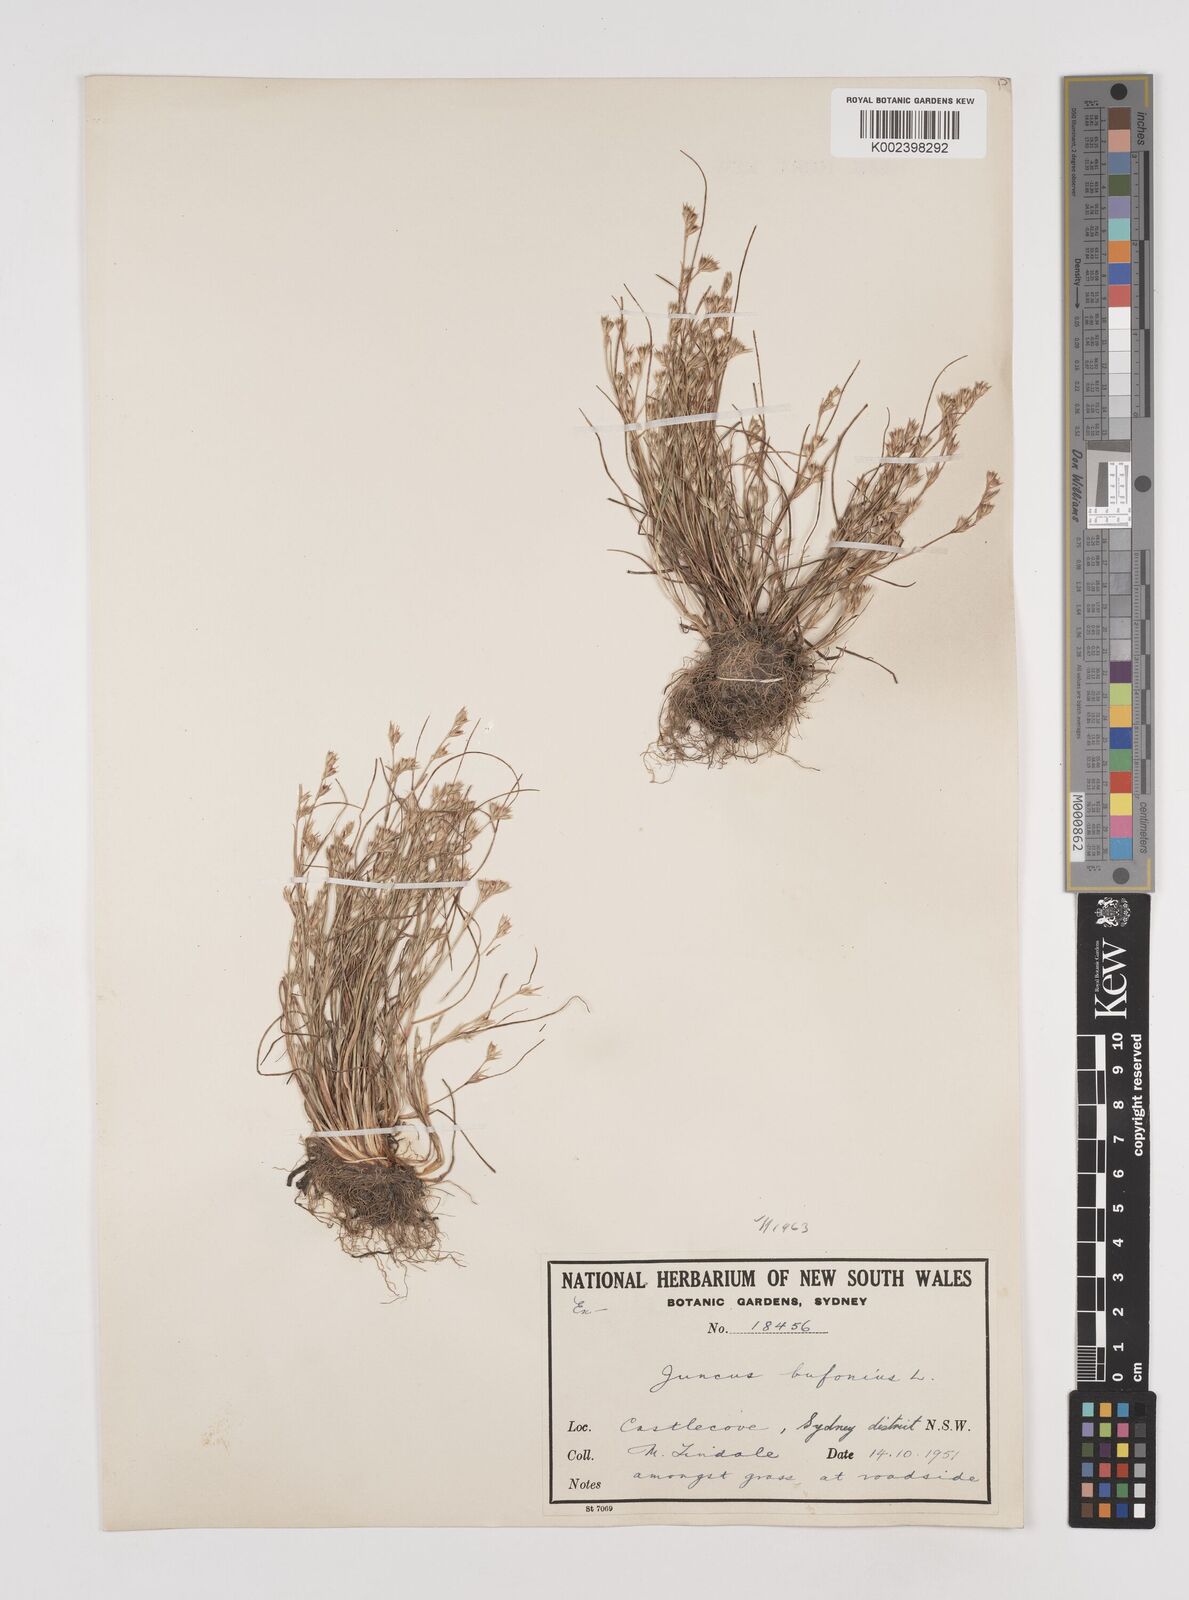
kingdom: Plantae
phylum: Tracheophyta
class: Liliopsida
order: Poales
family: Juncaceae
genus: Juncus
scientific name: Juncus ranarius
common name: Frog rush
